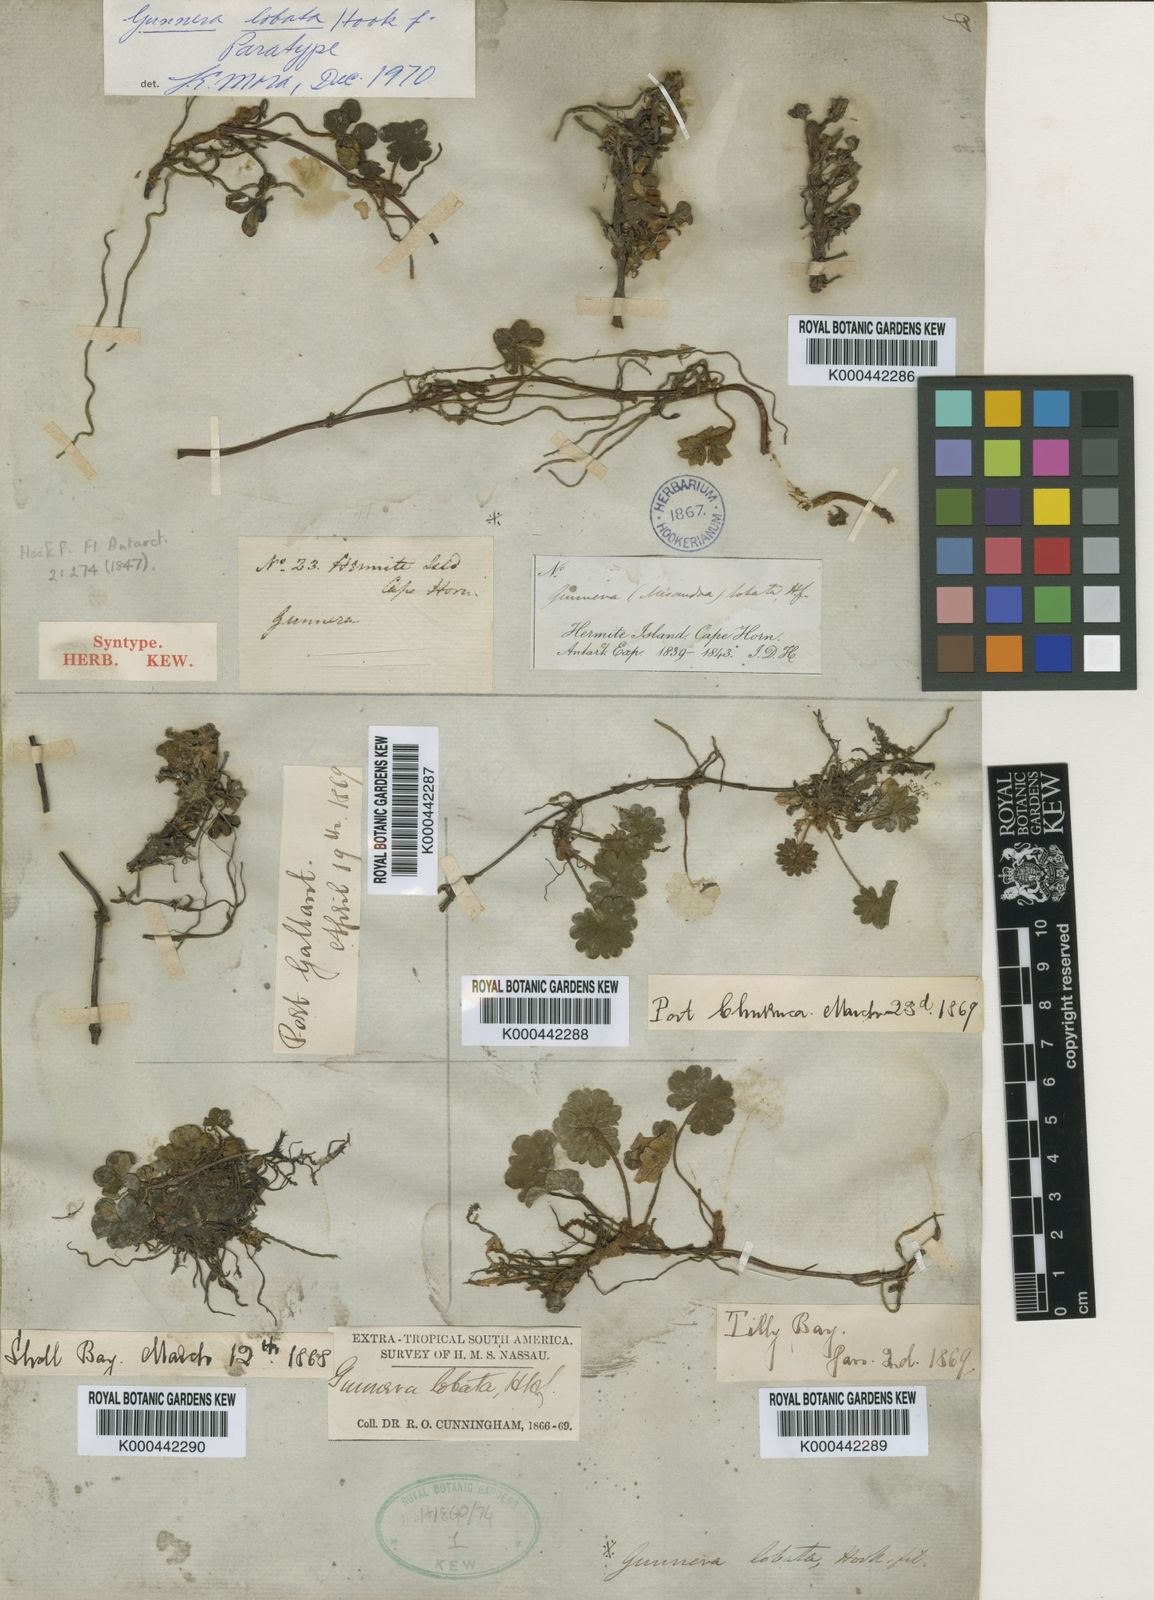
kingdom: Plantae
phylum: Tracheophyta
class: Magnoliopsida
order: Gunnerales
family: Gunneraceae
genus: Gunnera
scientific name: Gunnera lobata
